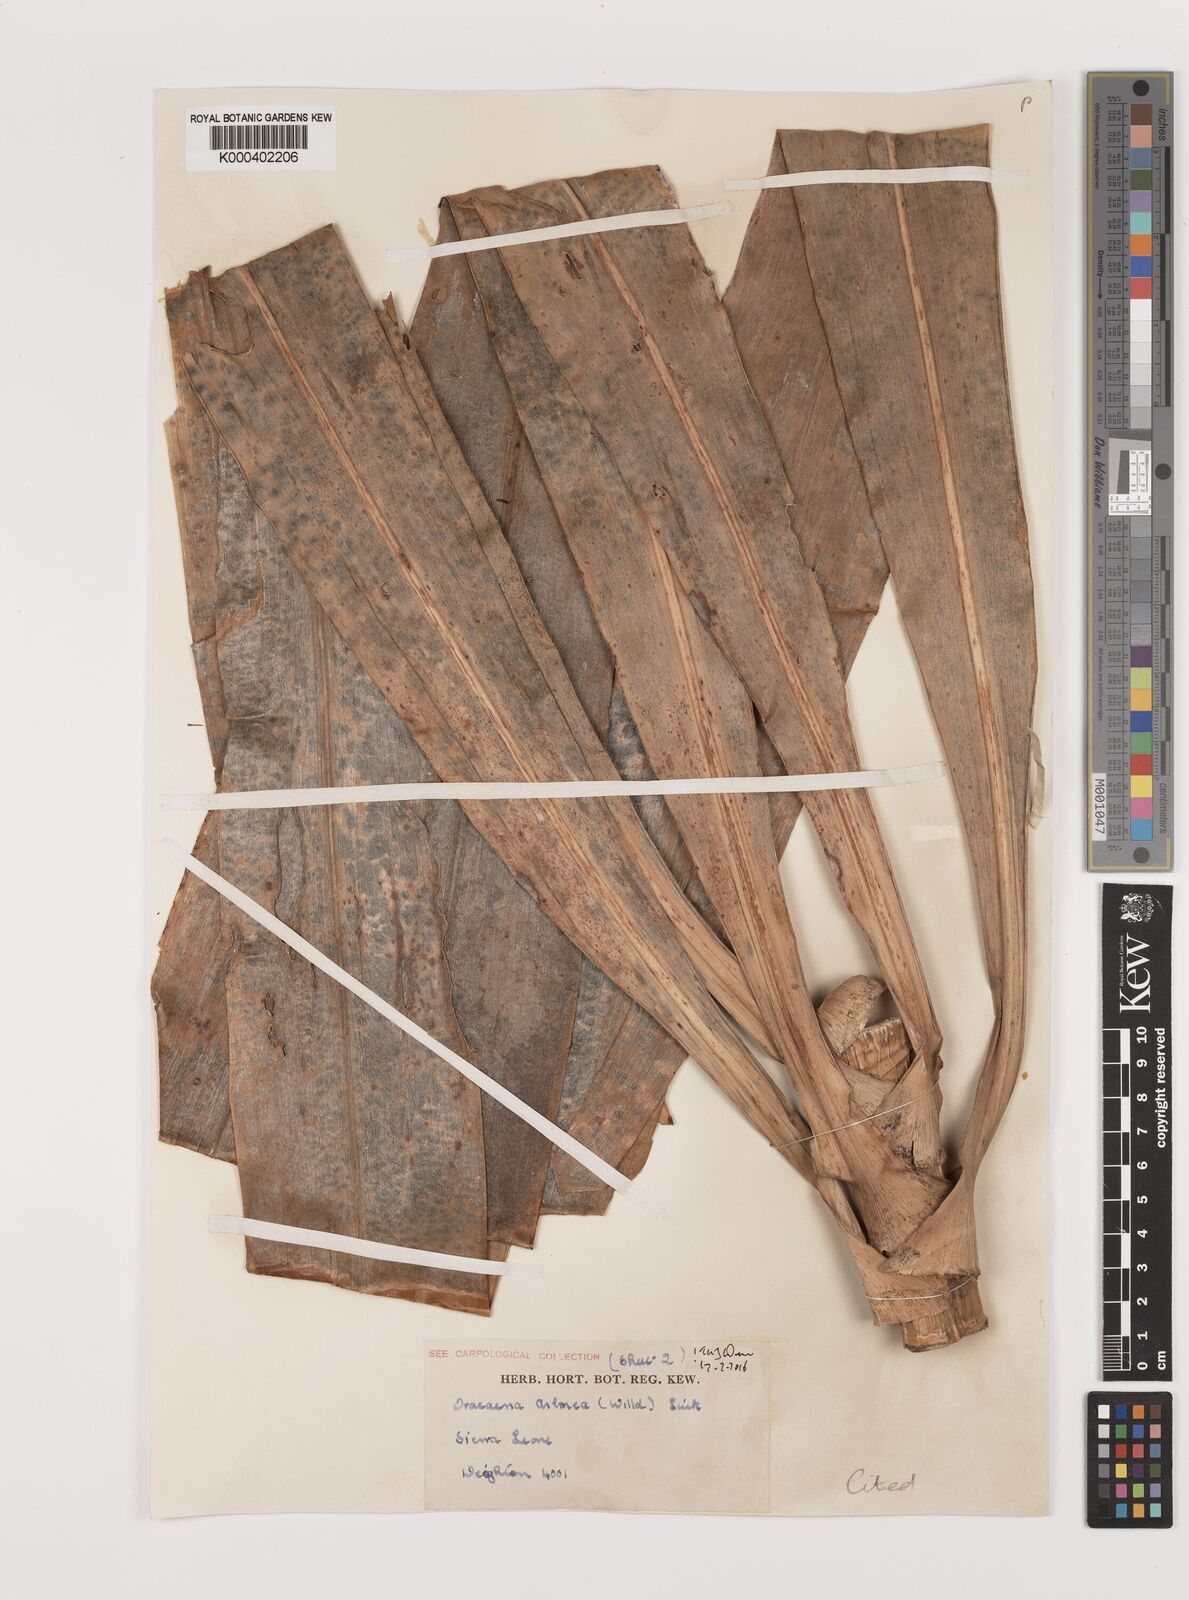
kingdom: Plantae
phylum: Tracheophyta
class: Liliopsida
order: Asparagales
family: Asparagaceae
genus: Dracaena
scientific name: Dracaena fragrans
